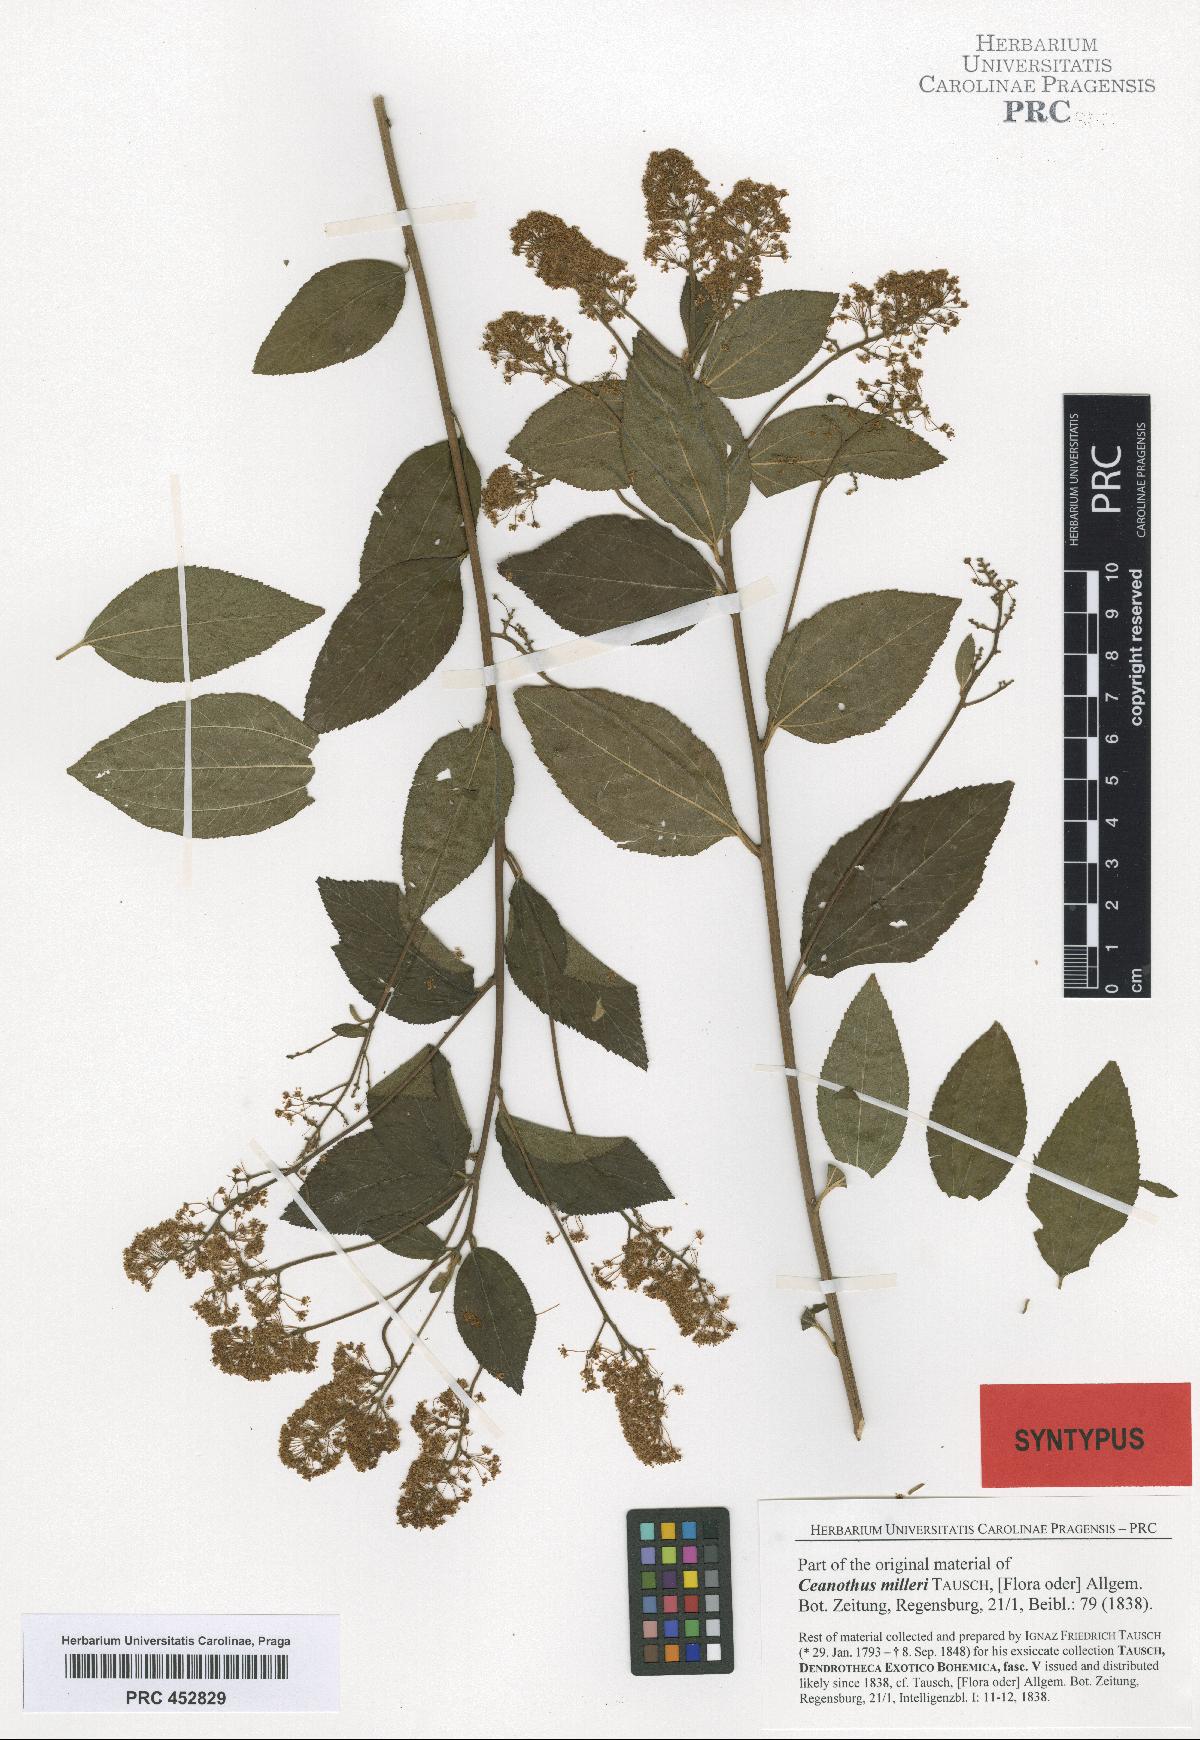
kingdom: Plantae
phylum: Tracheophyta
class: Magnoliopsida
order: Rosales
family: Rhamnaceae
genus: Ceanothus
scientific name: Ceanothus americanus
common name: Redroot
